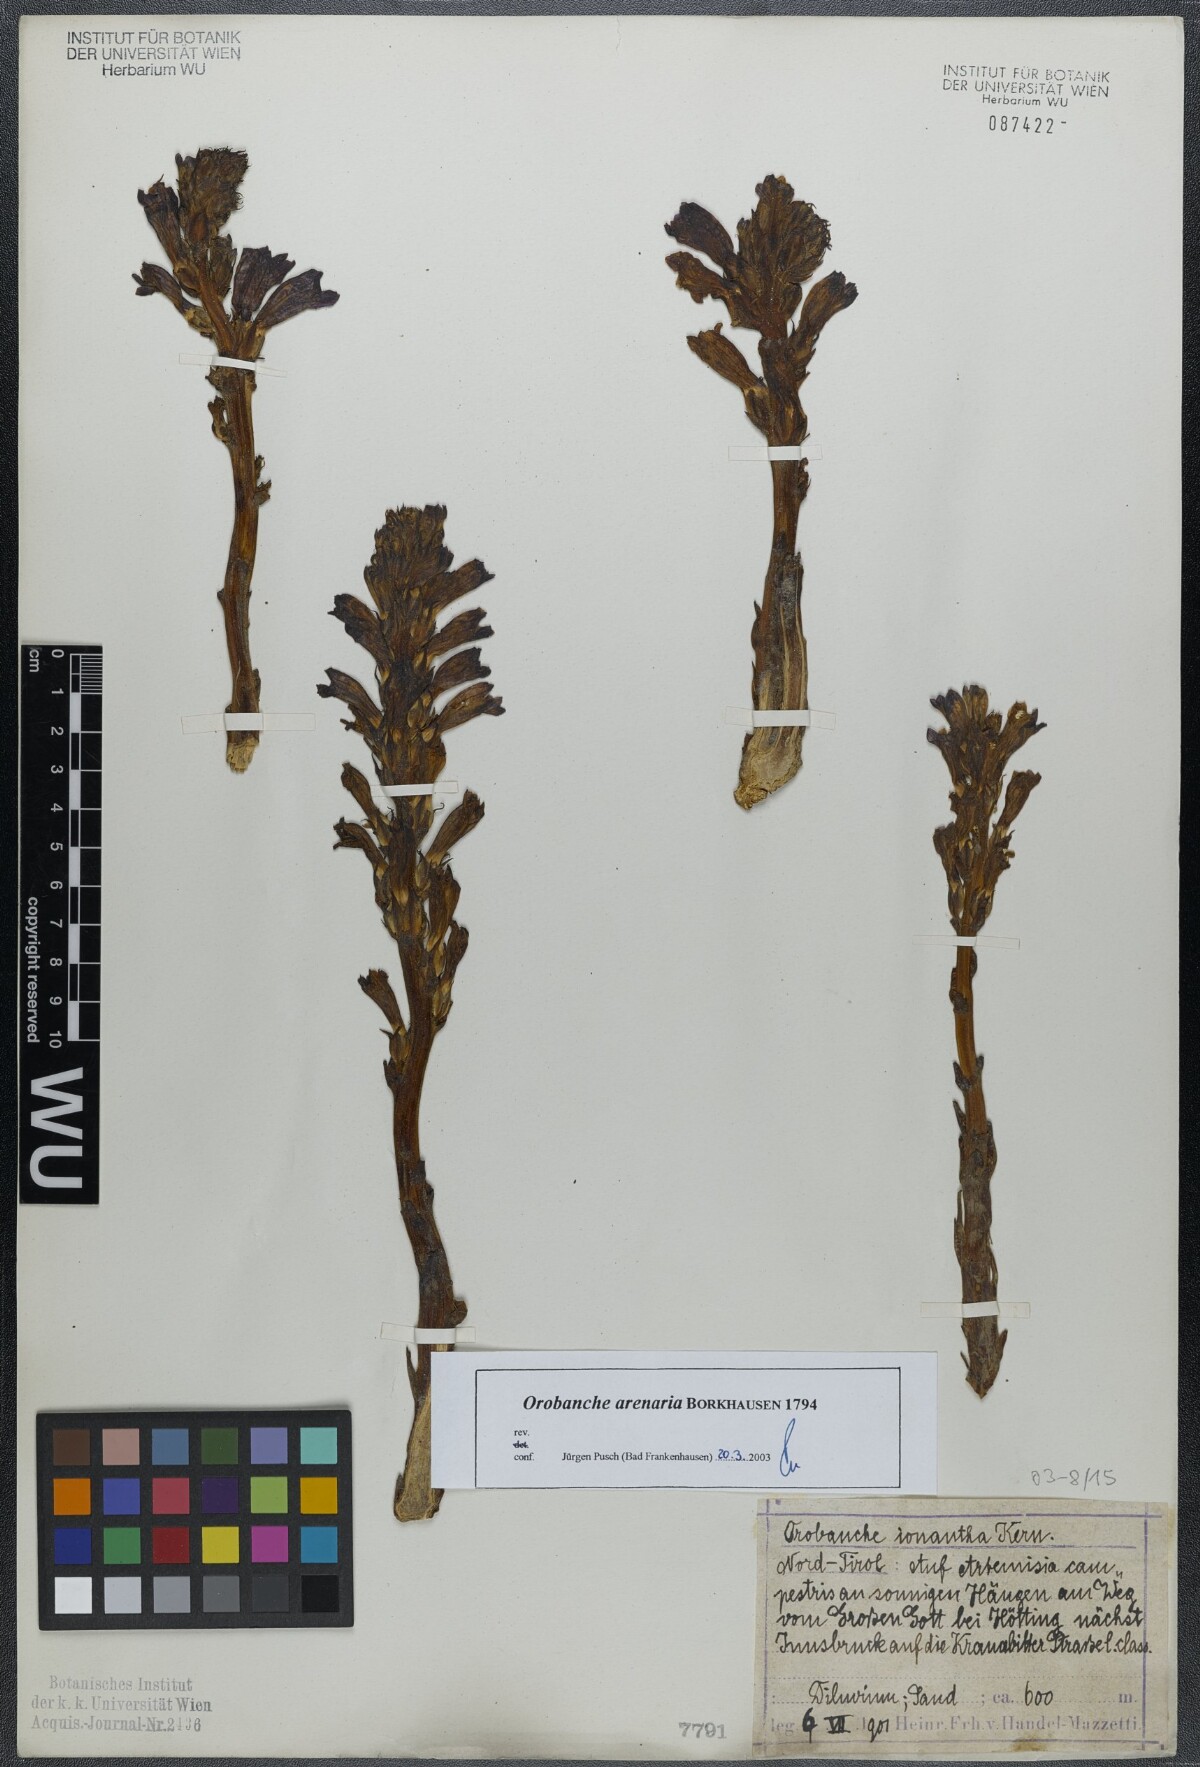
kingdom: Plantae
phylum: Tracheophyta
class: Magnoliopsida
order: Lamiales
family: Orobanchaceae
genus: Phelipanche
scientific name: Phelipanche arenaria
